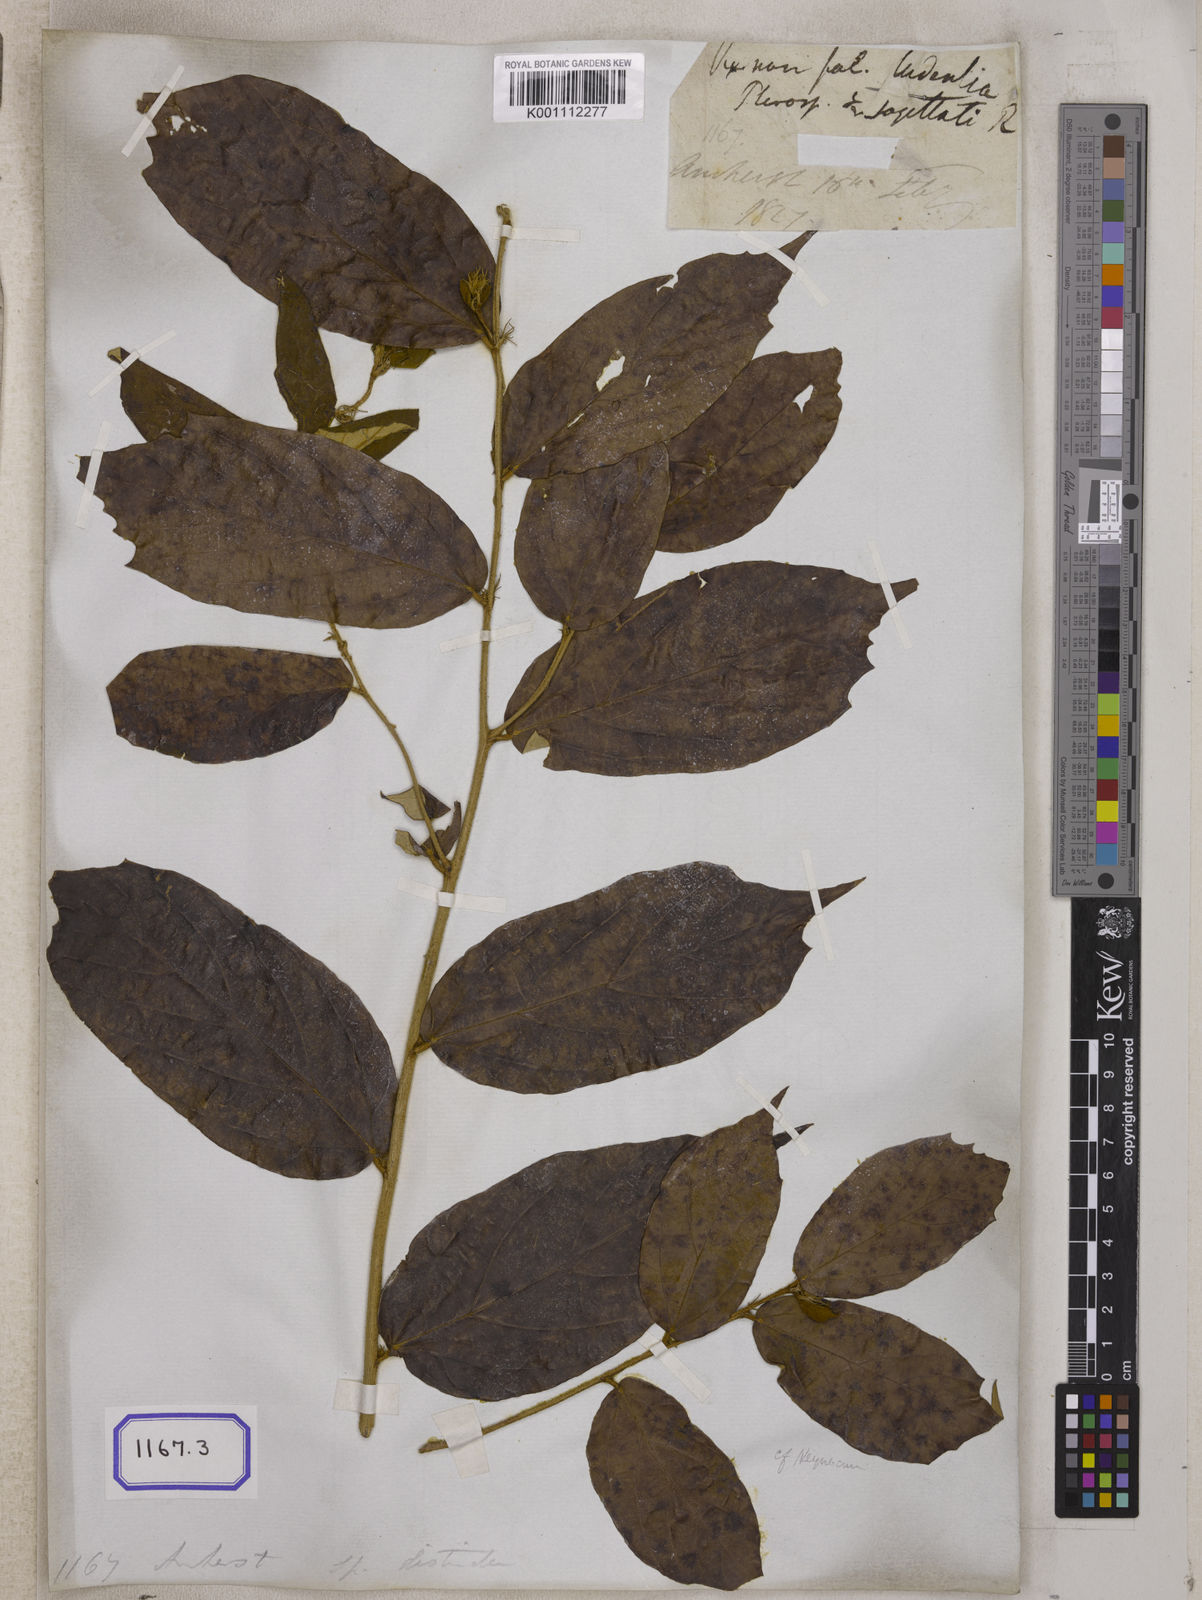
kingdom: Plantae
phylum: Tracheophyta
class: Magnoliopsida
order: Malvales
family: Malvaceae
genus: Pterospermum
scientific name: Pterospermum semisagittatum
